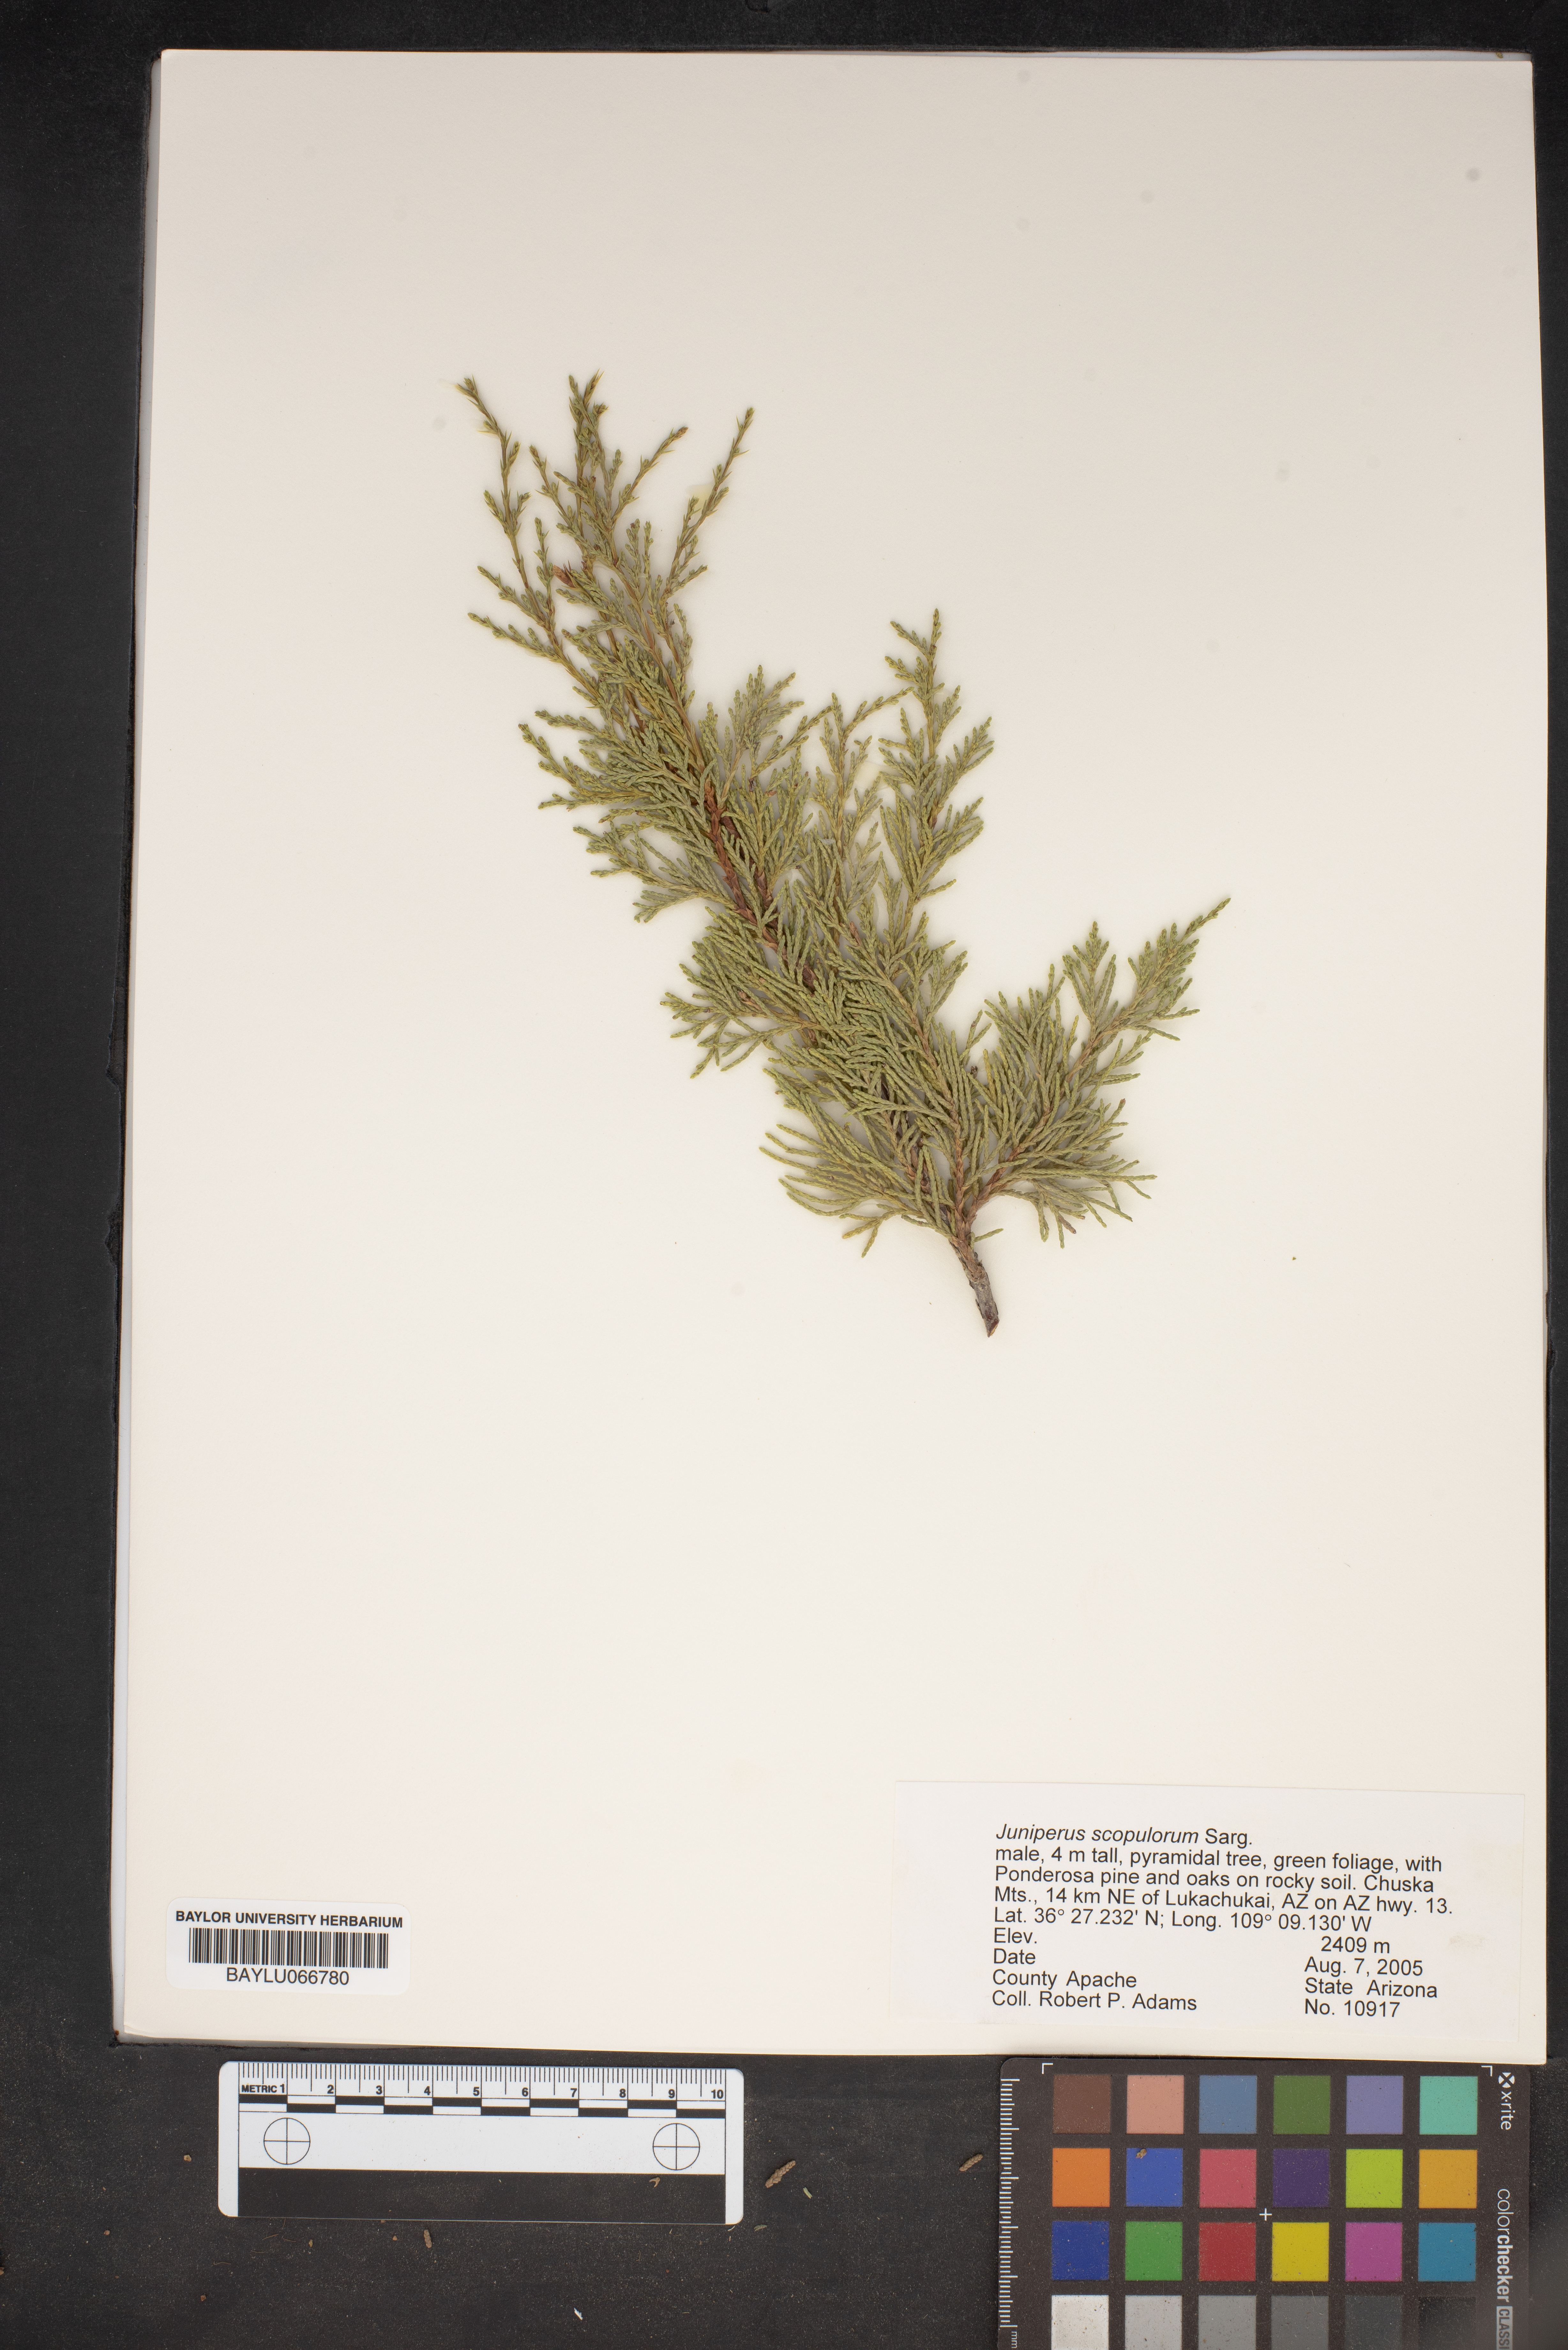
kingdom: Plantae
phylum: Tracheophyta
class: Pinopsida
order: Pinales
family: Cupressaceae
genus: Juniperus
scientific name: Juniperus scopulorum
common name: Rocky mountain juniper
